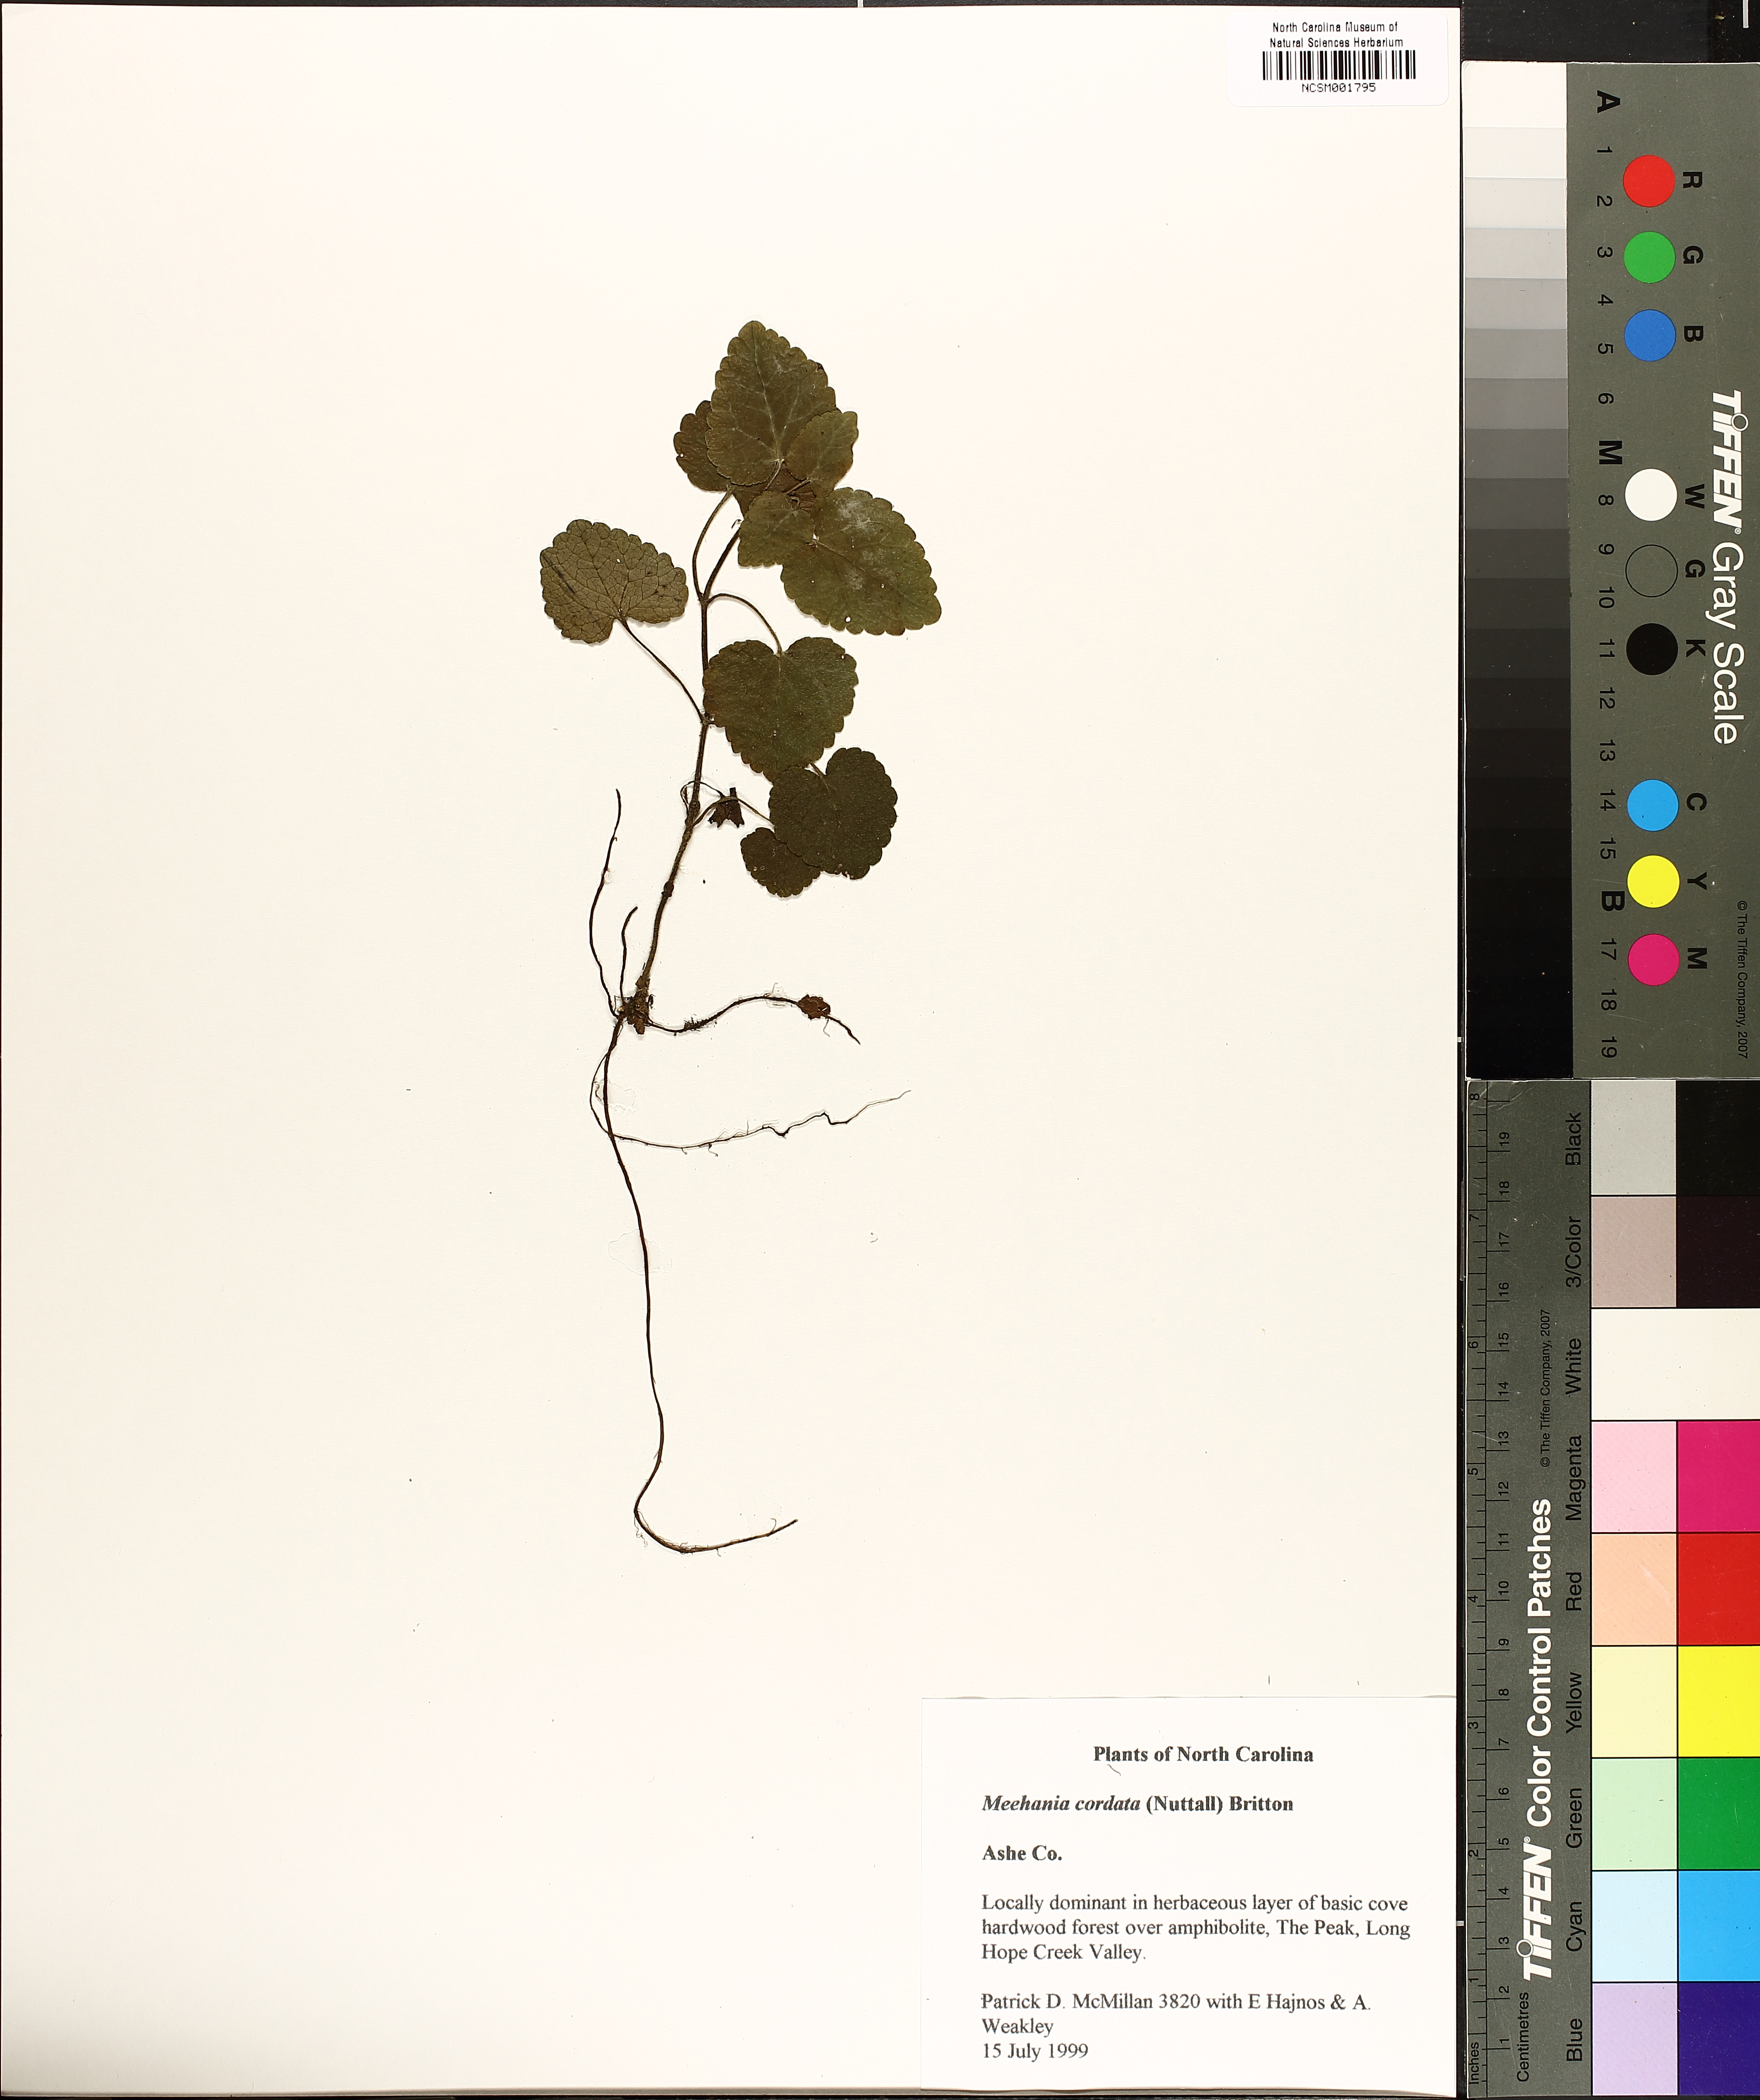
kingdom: Plantae
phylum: Tracheophyta
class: Magnoliopsida
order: Lamiales
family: Lamiaceae
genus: Meehania
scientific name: Meehania cordata
